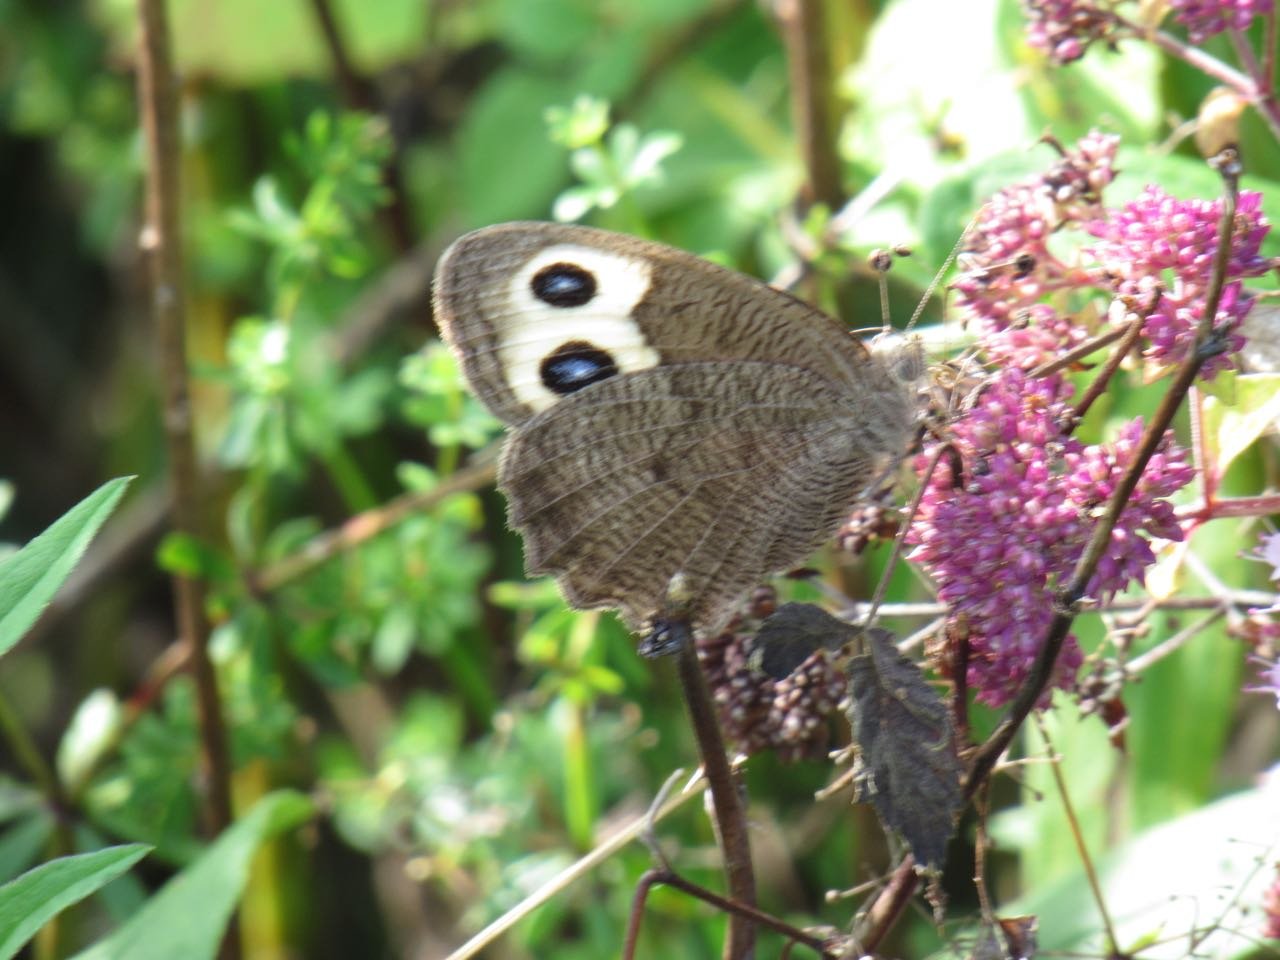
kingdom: Animalia
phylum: Arthropoda
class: Insecta
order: Lepidoptera
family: Nymphalidae
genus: Cercyonis
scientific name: Cercyonis pegala
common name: Common Wood-Nymph
